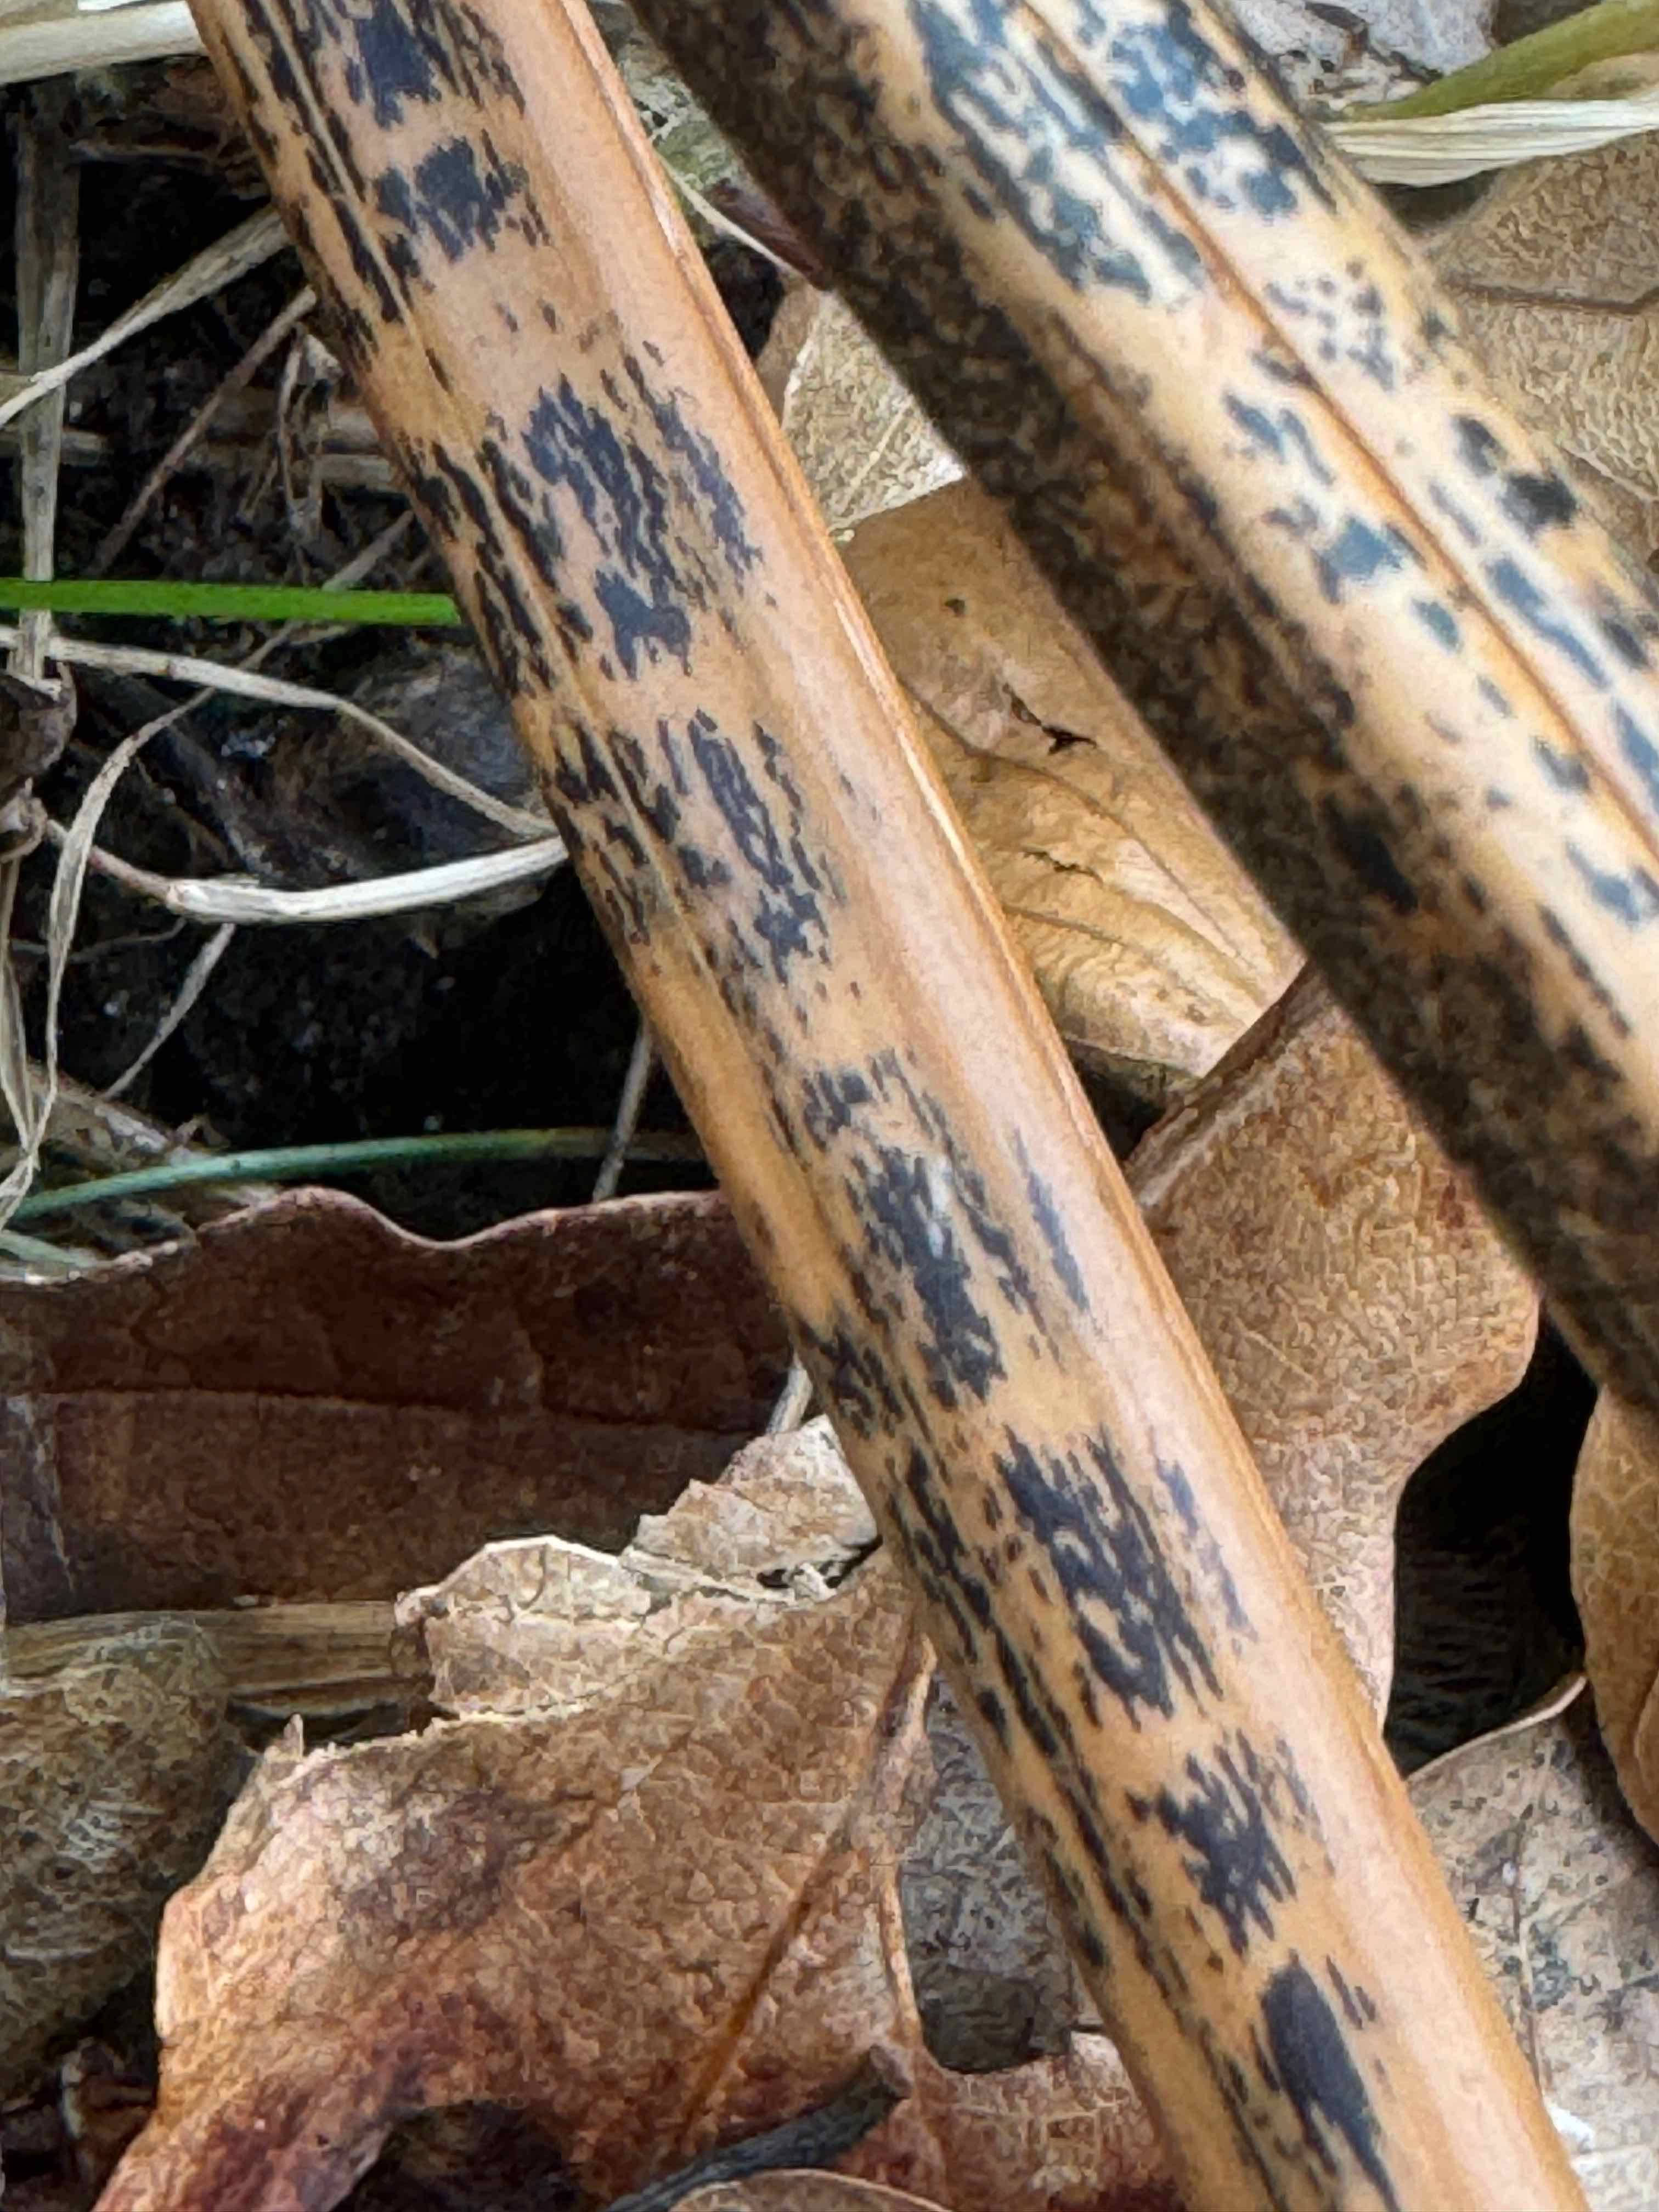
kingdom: Fungi
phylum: Ascomycota
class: Dothideomycetes
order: Pleosporales
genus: Rhopographus
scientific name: Rhopographus filicinus
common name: Bracken map
